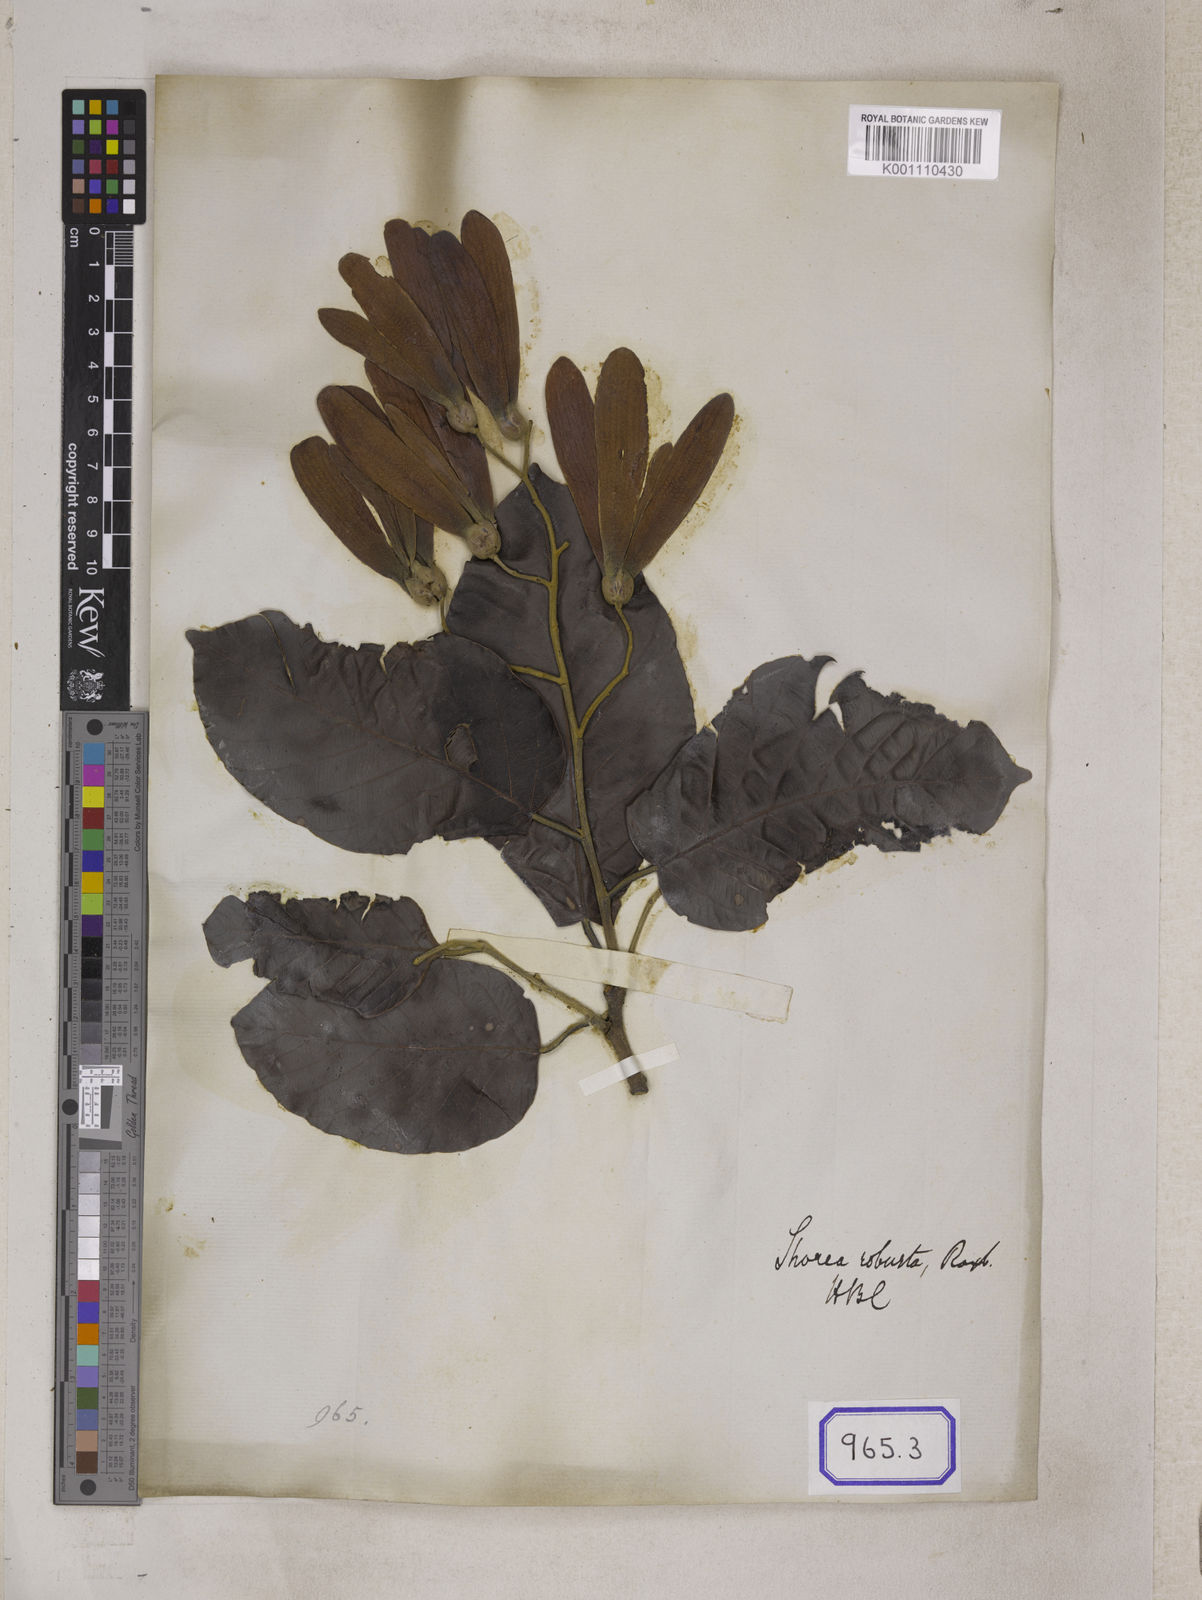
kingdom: Plantae
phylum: Tracheophyta
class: Magnoliopsida
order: Malvales
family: Dipterocarpaceae
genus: Shorea
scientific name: Shorea
